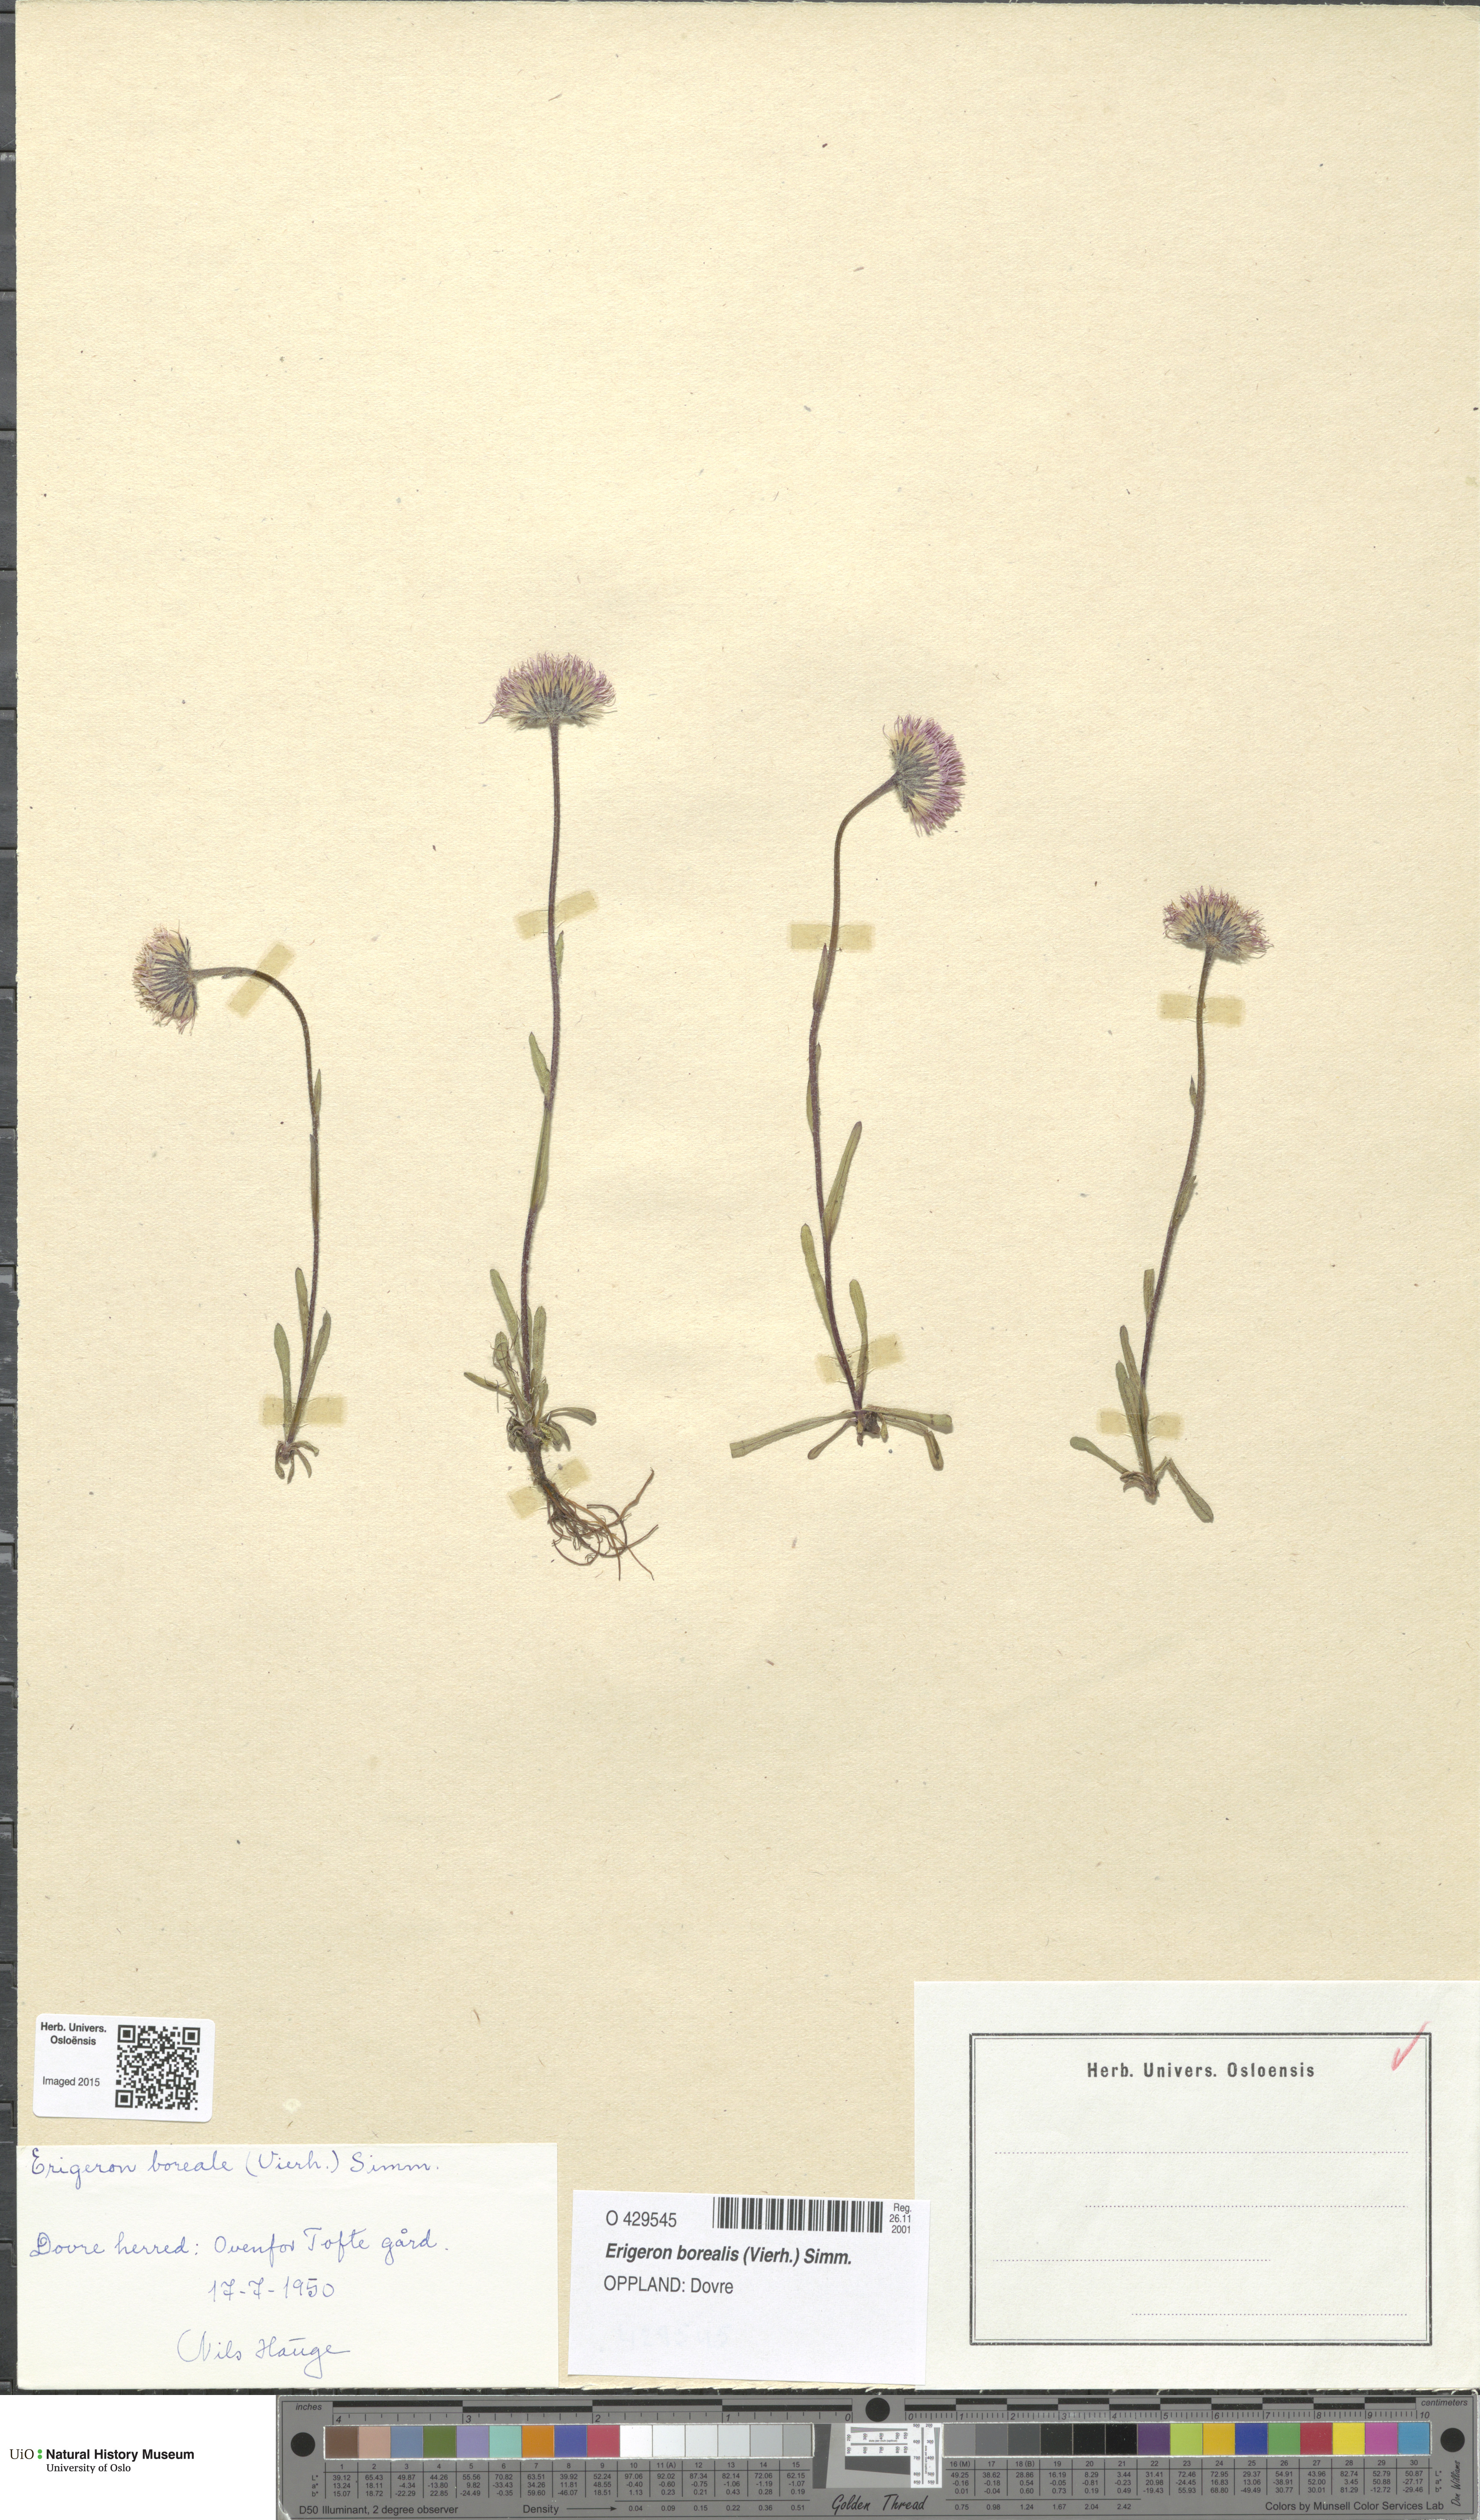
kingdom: Plantae
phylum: Tracheophyta
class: Magnoliopsida
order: Asterales
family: Asteraceae
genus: Erigeron
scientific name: Erigeron borealis
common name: Alpine fleabane
